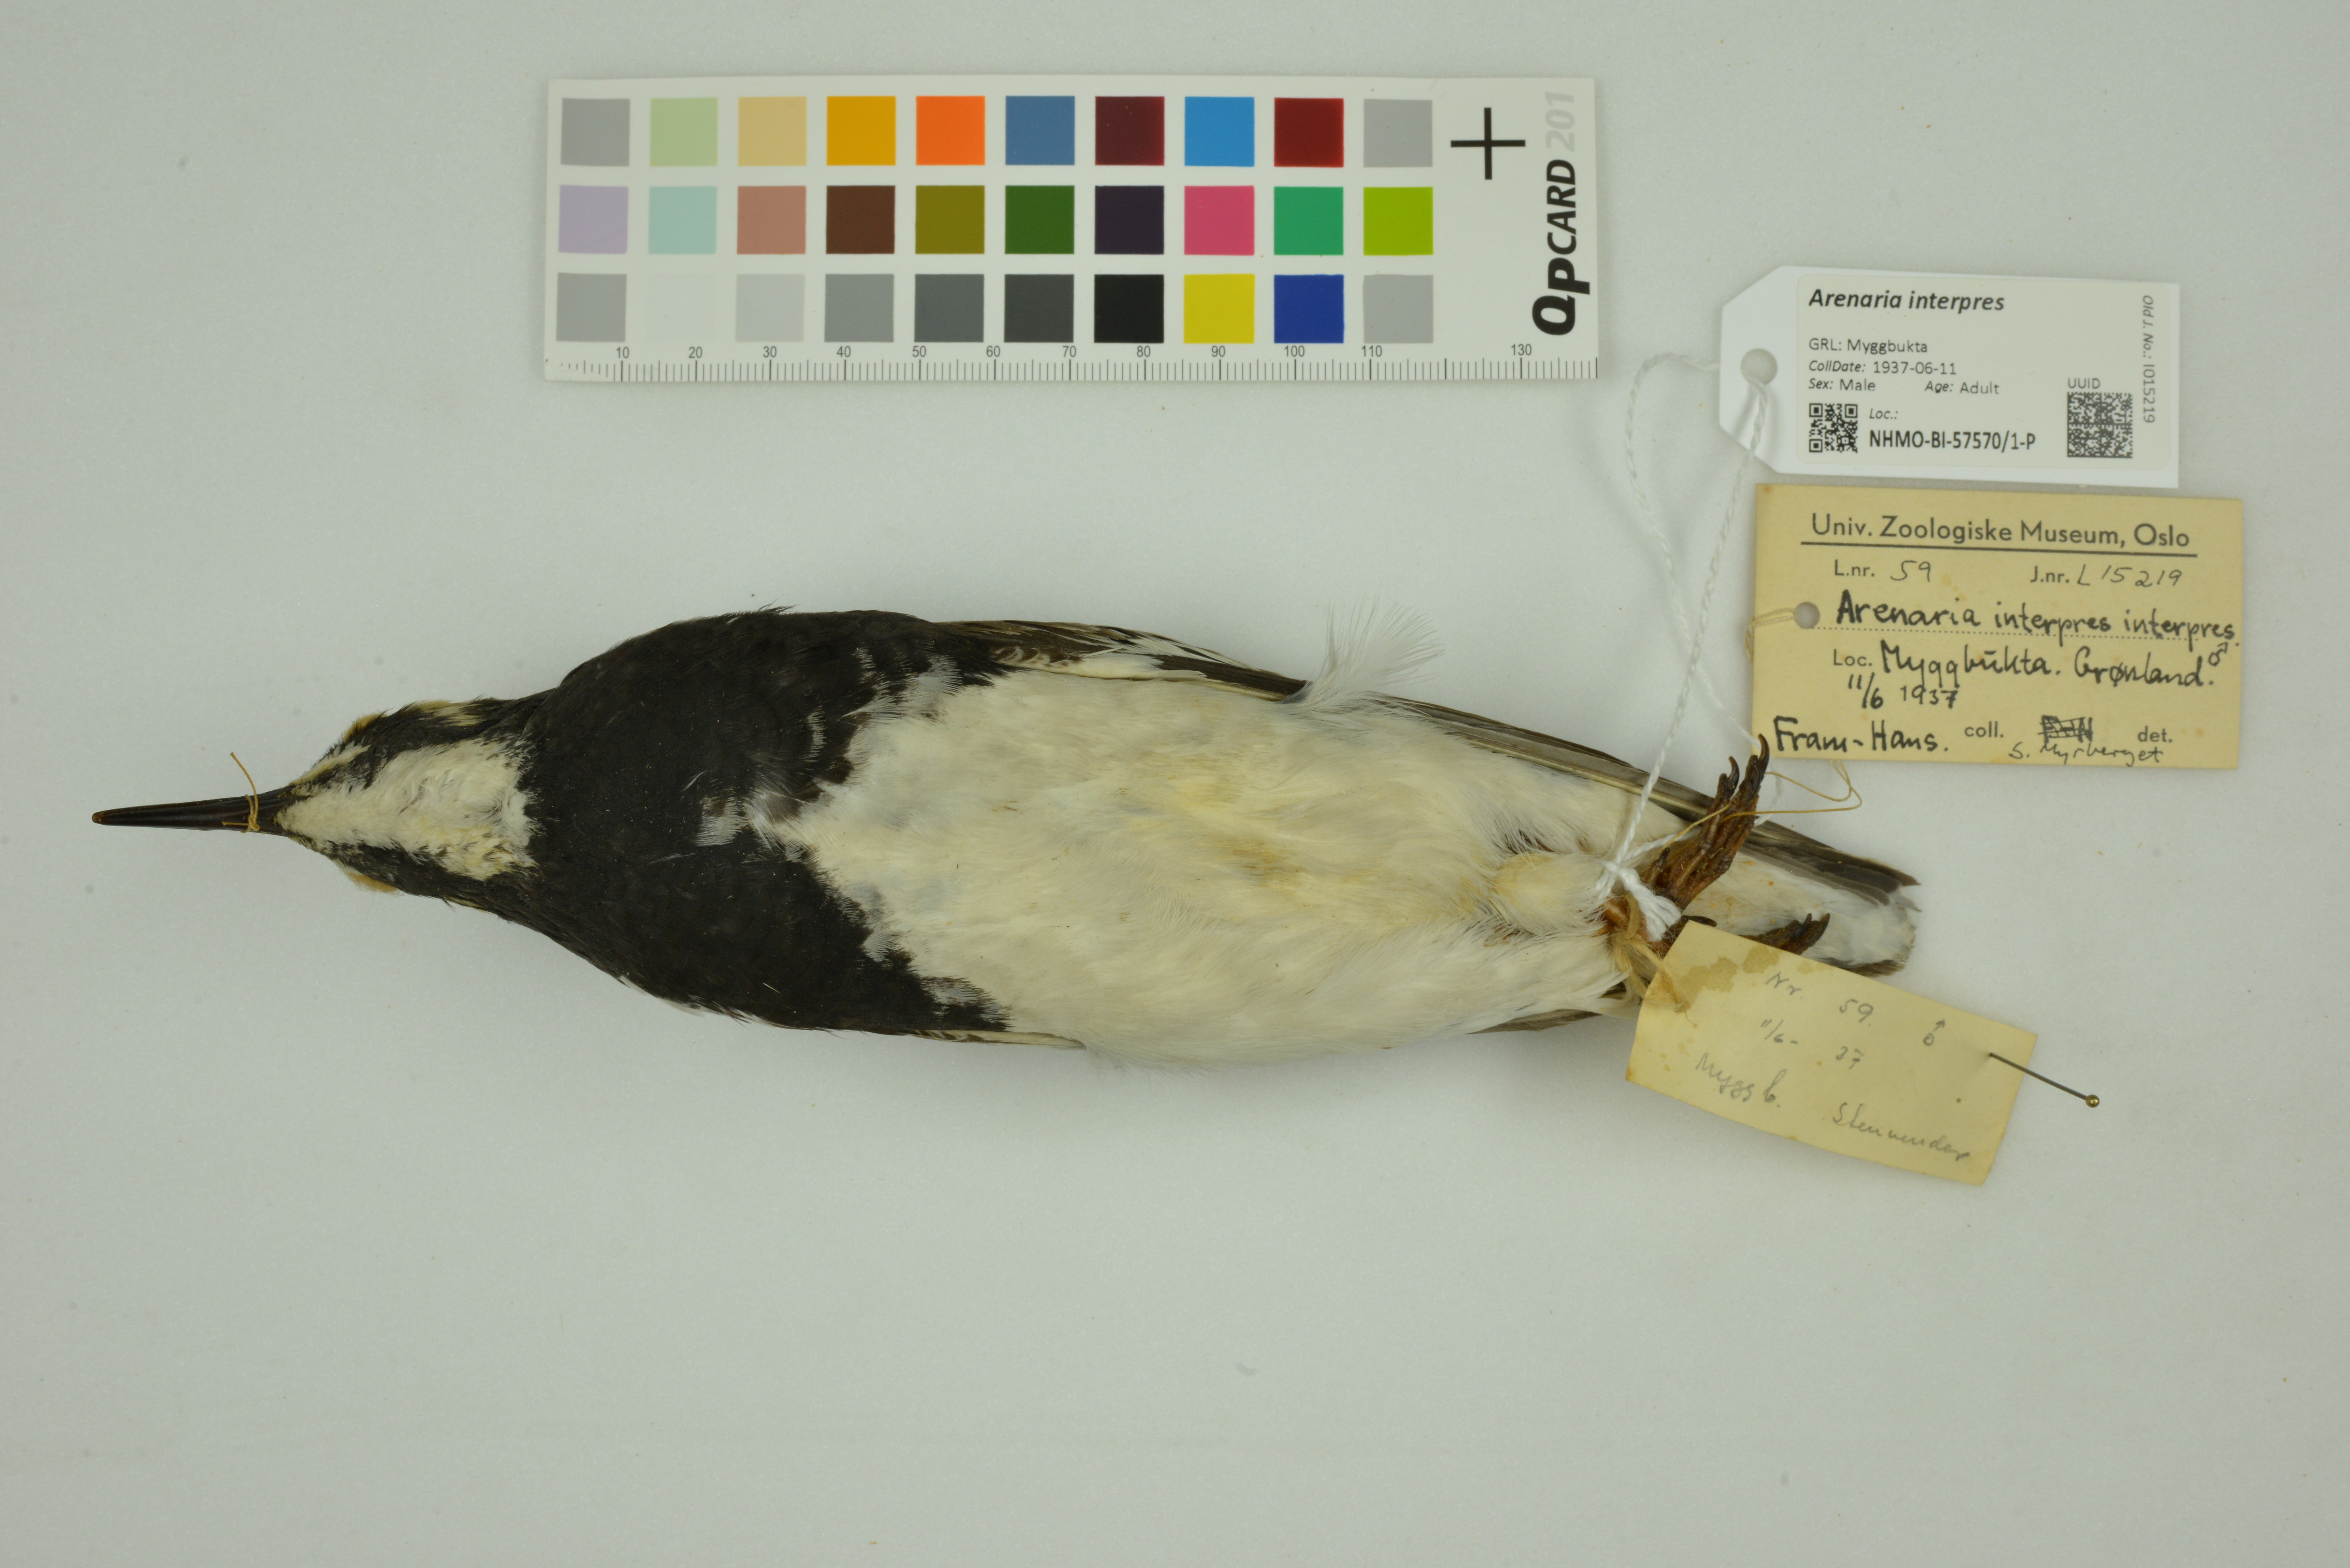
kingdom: Animalia
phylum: Chordata
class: Aves
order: Charadriiformes
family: Scolopacidae
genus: Arenaria
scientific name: Arenaria interpres
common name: Ruddy turnstone
